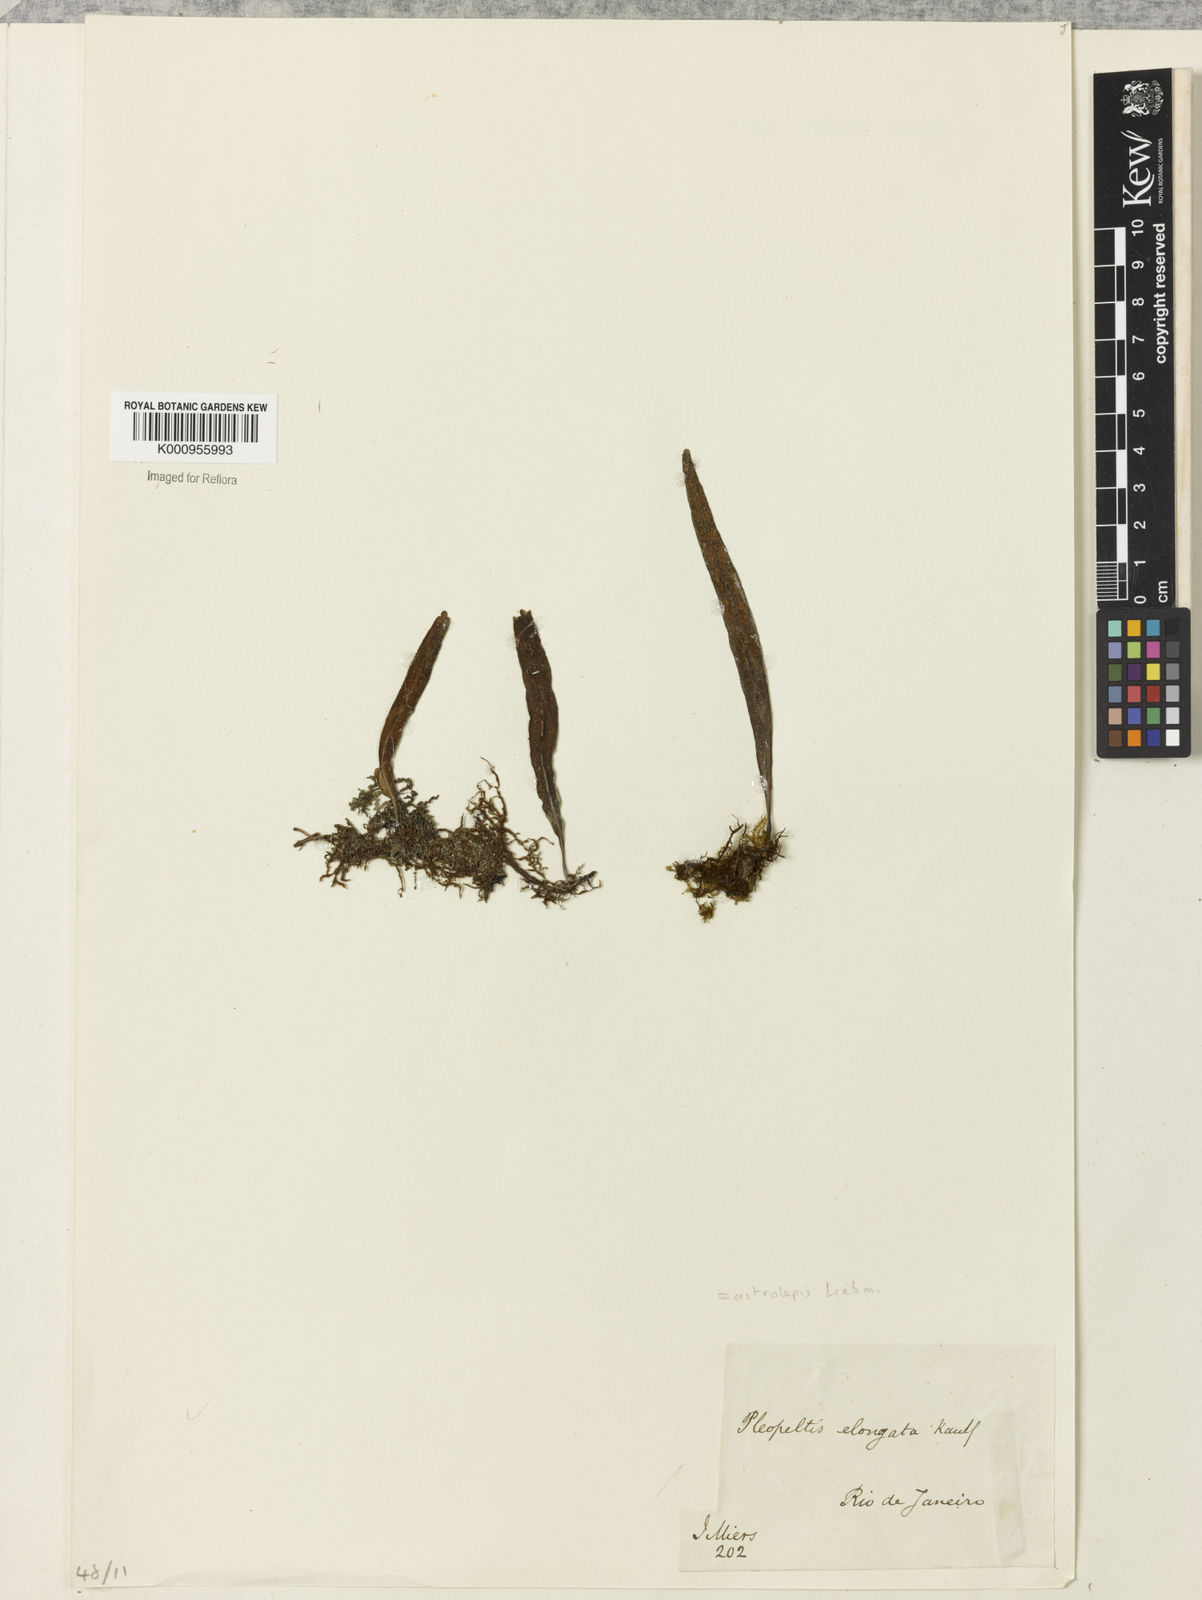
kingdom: Plantae
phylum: Tracheophyta
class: Polypodiopsida
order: Polypodiales
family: Polypodiaceae
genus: Pleopeltis
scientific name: Pleopeltis astrolepis
